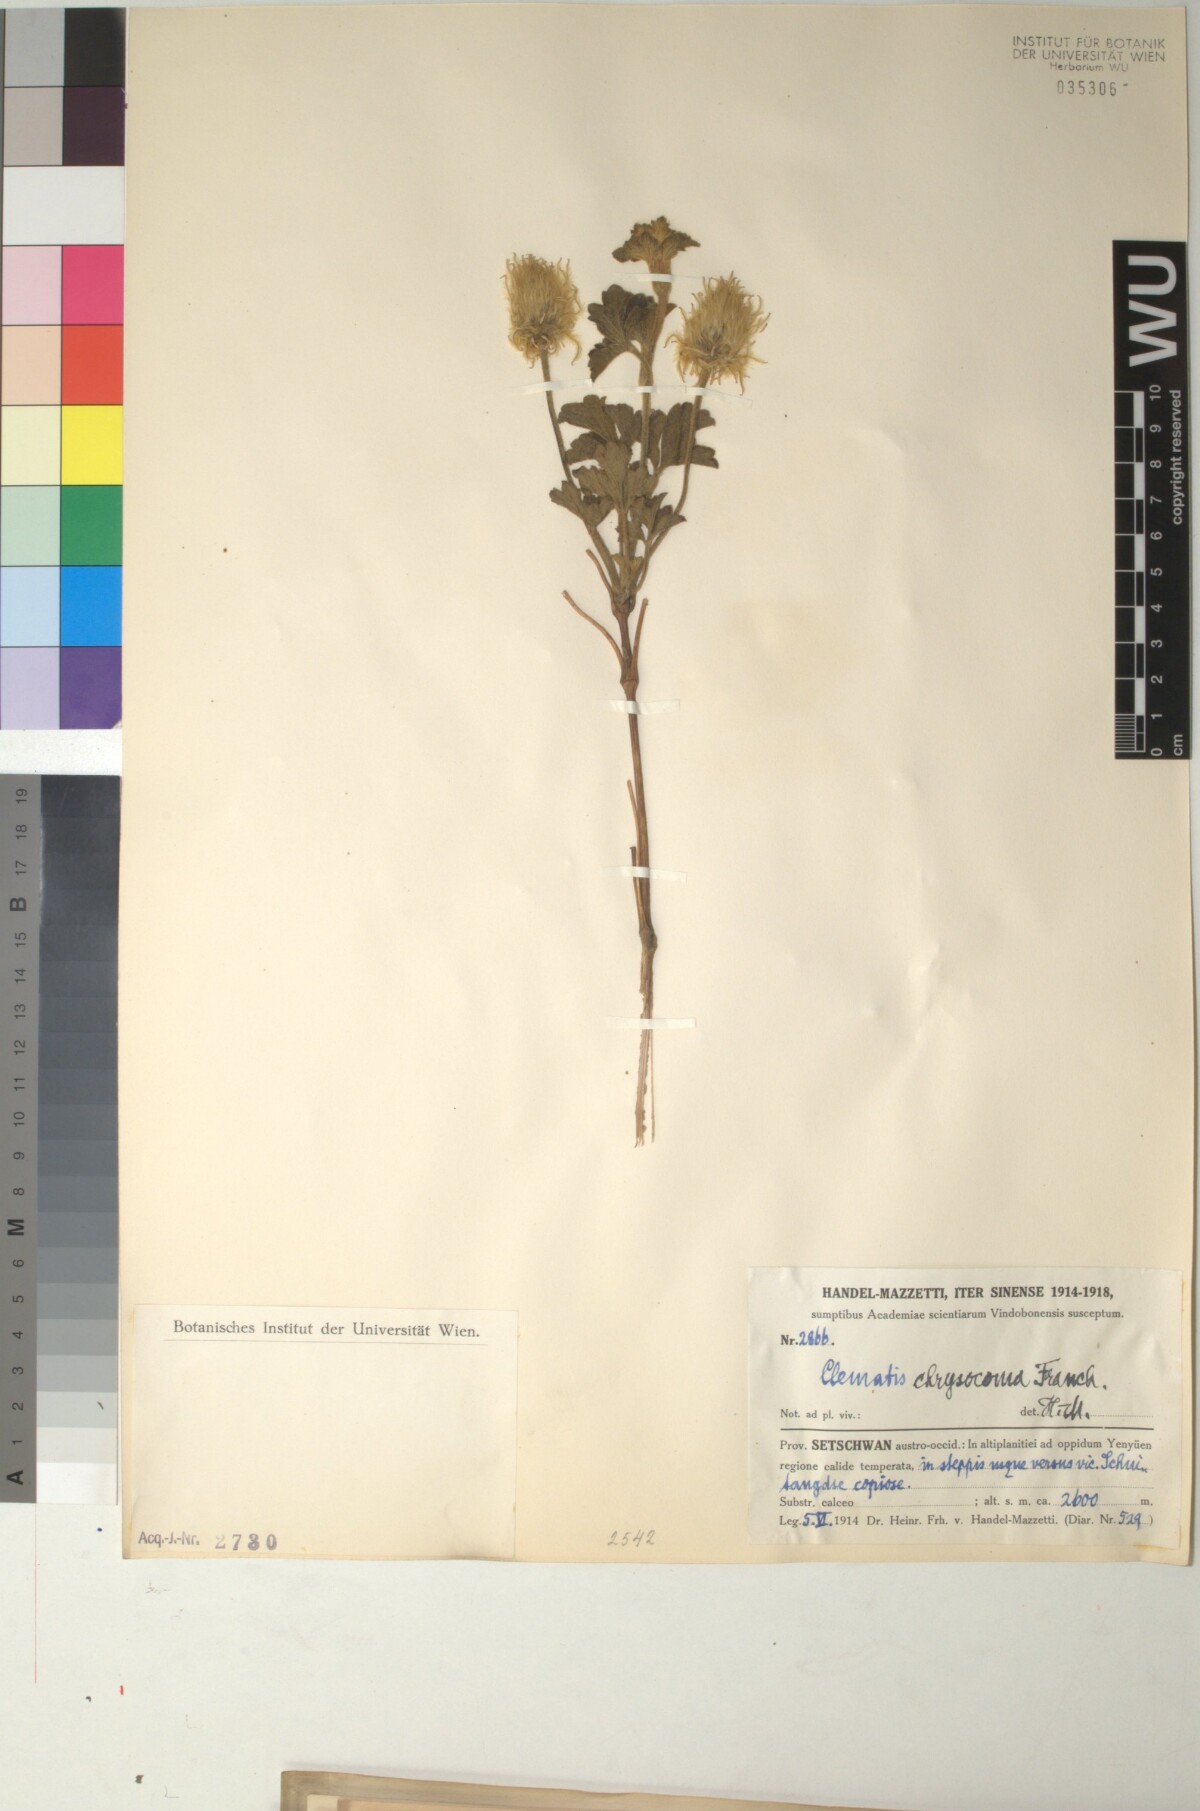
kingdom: Plantae
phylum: Tracheophyta
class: Magnoliopsida
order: Ranunculales
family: Ranunculaceae
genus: Clematis
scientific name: Clematis chrysocoma
